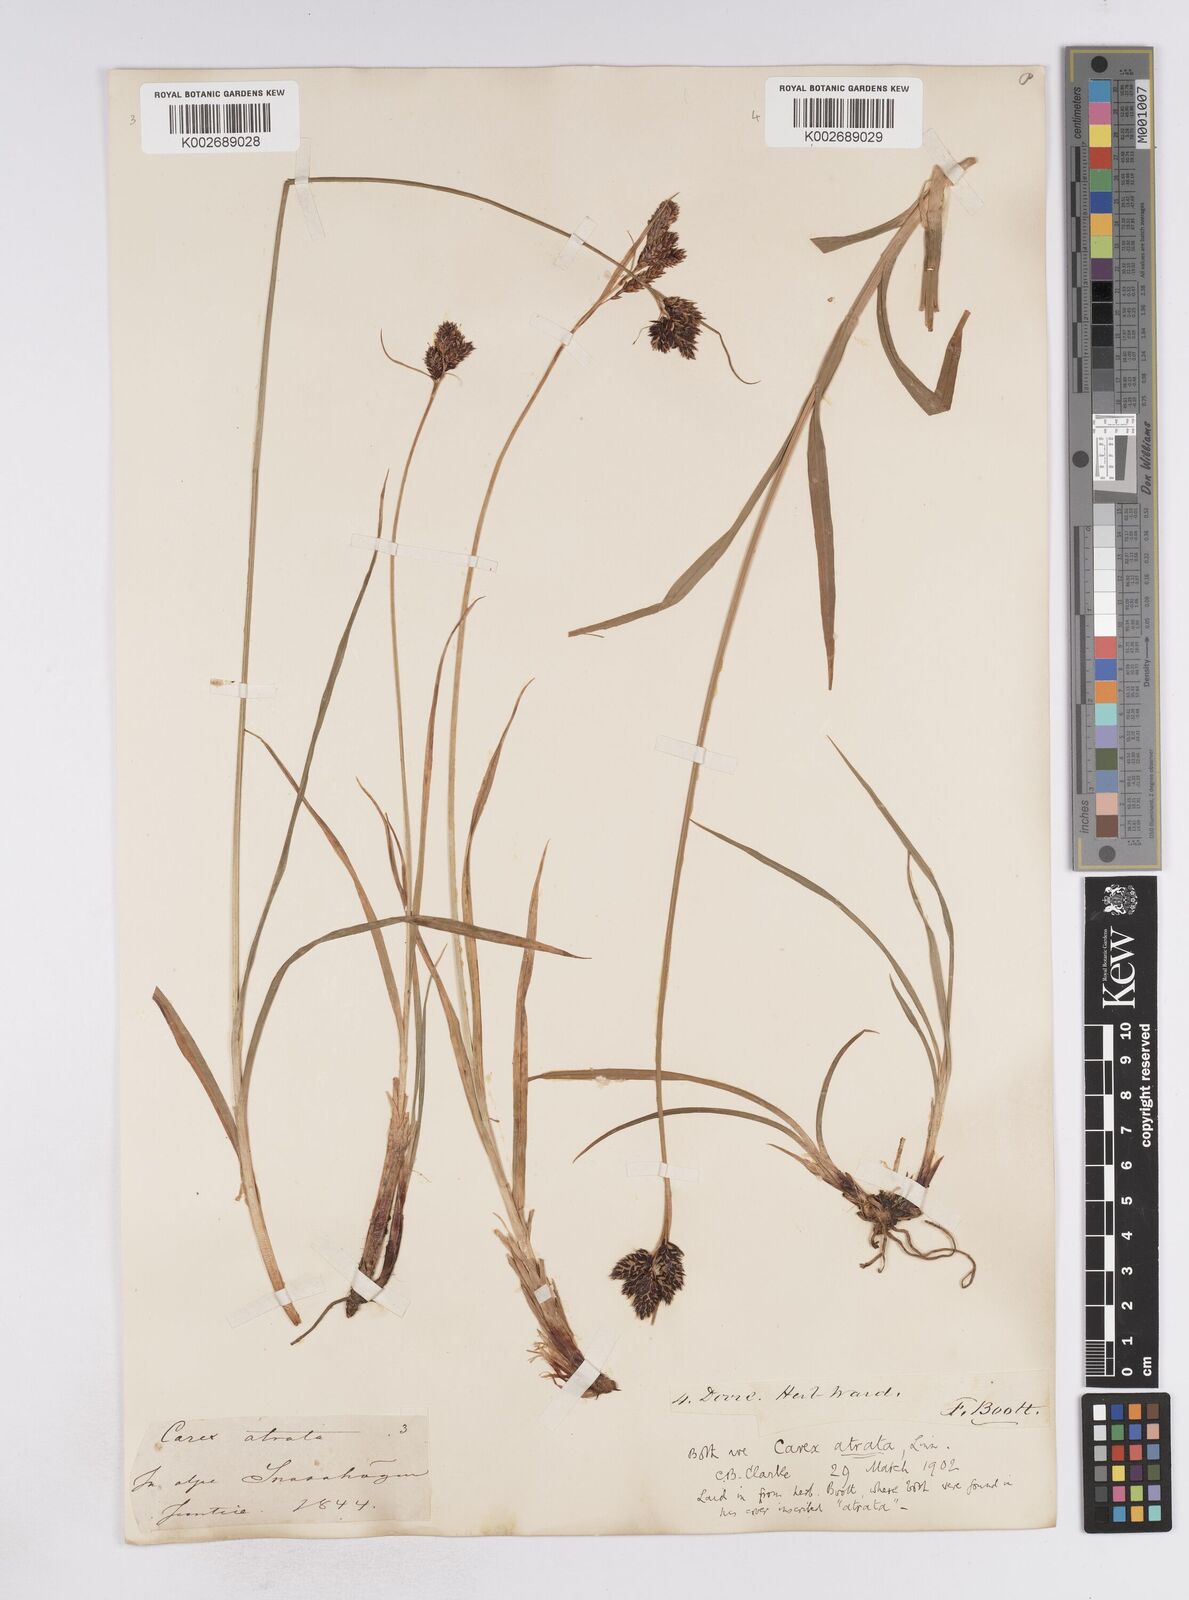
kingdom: Plantae
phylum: Tracheophyta
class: Liliopsida
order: Poales
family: Cyperaceae
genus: Carex
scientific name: Carex atrata
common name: Black alpine sedge
